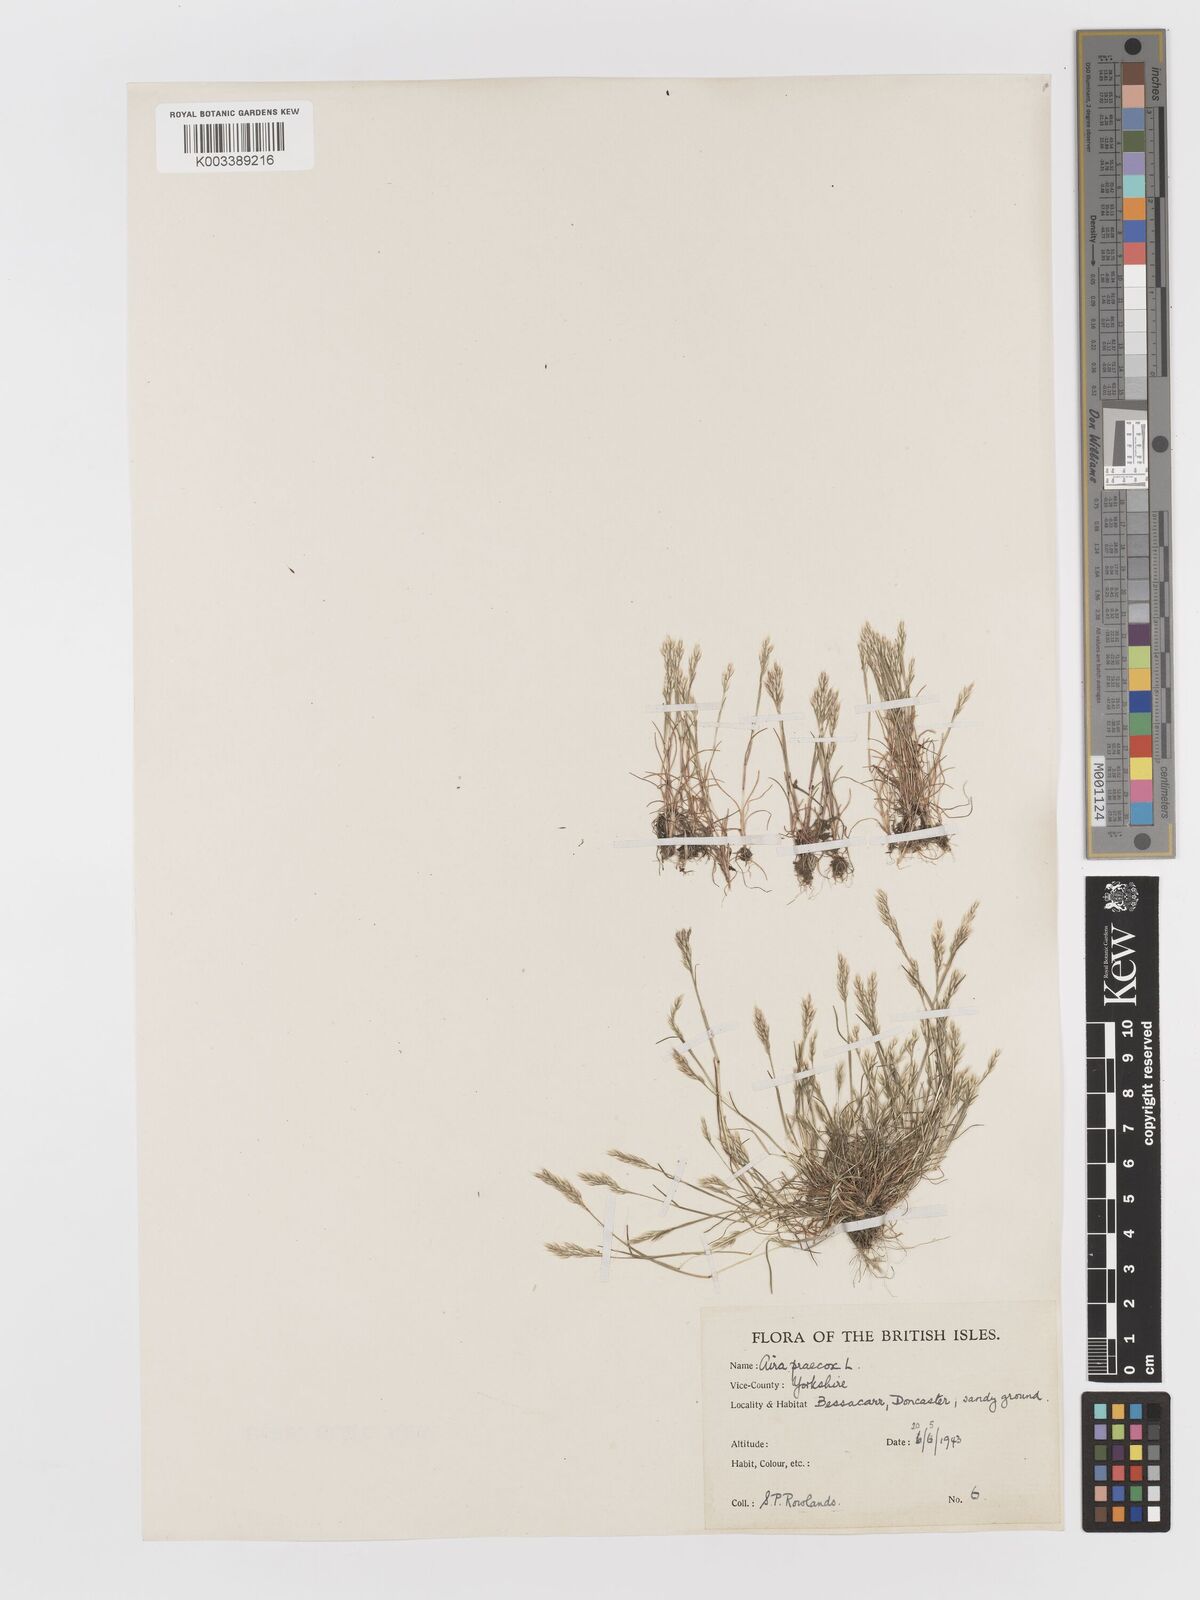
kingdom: Plantae
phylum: Tracheophyta
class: Liliopsida
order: Poales
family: Poaceae
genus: Aira
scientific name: Aira praecox
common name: Early hair-grass
